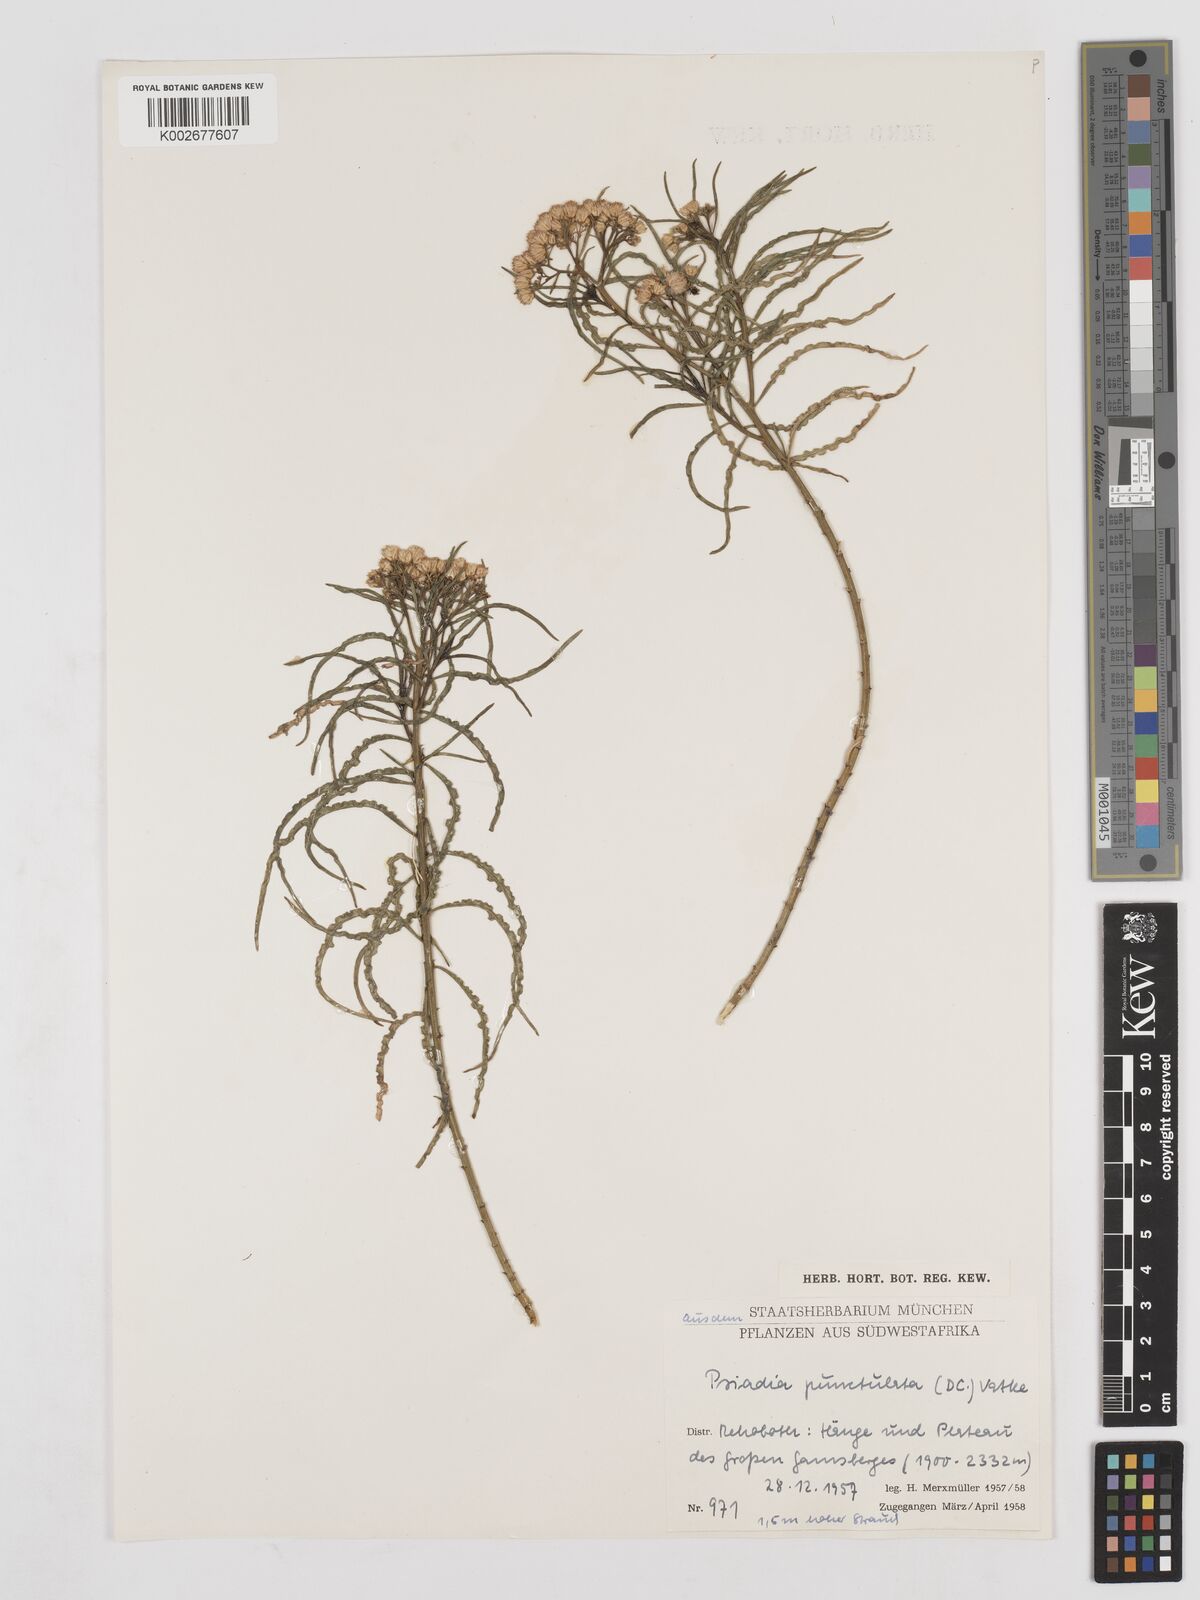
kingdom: Plantae
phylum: Tracheophyta
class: Magnoliopsida
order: Asterales
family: Asteraceae
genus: Psiadia
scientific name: Psiadia punctulata
